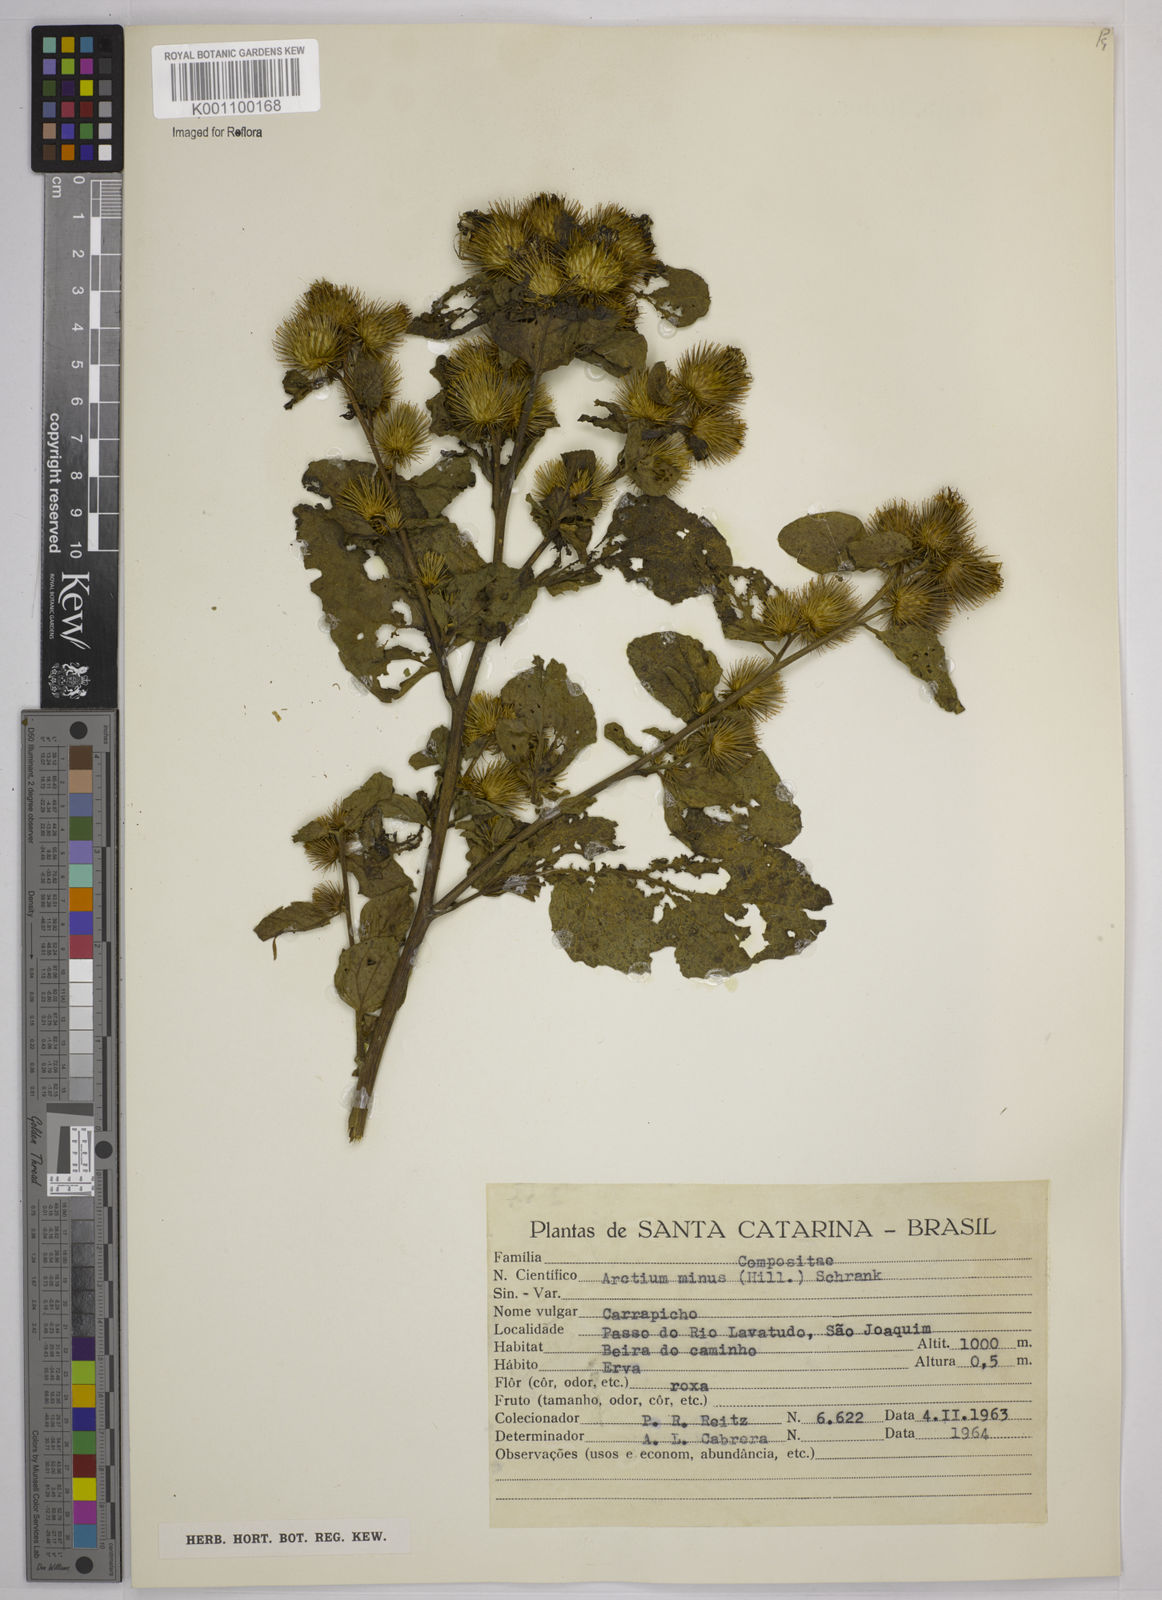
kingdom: Plantae
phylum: Tracheophyta
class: Magnoliopsida
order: Asterales
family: Asteraceae
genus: Arctium
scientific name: Arctium minus
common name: Lesser burdock
